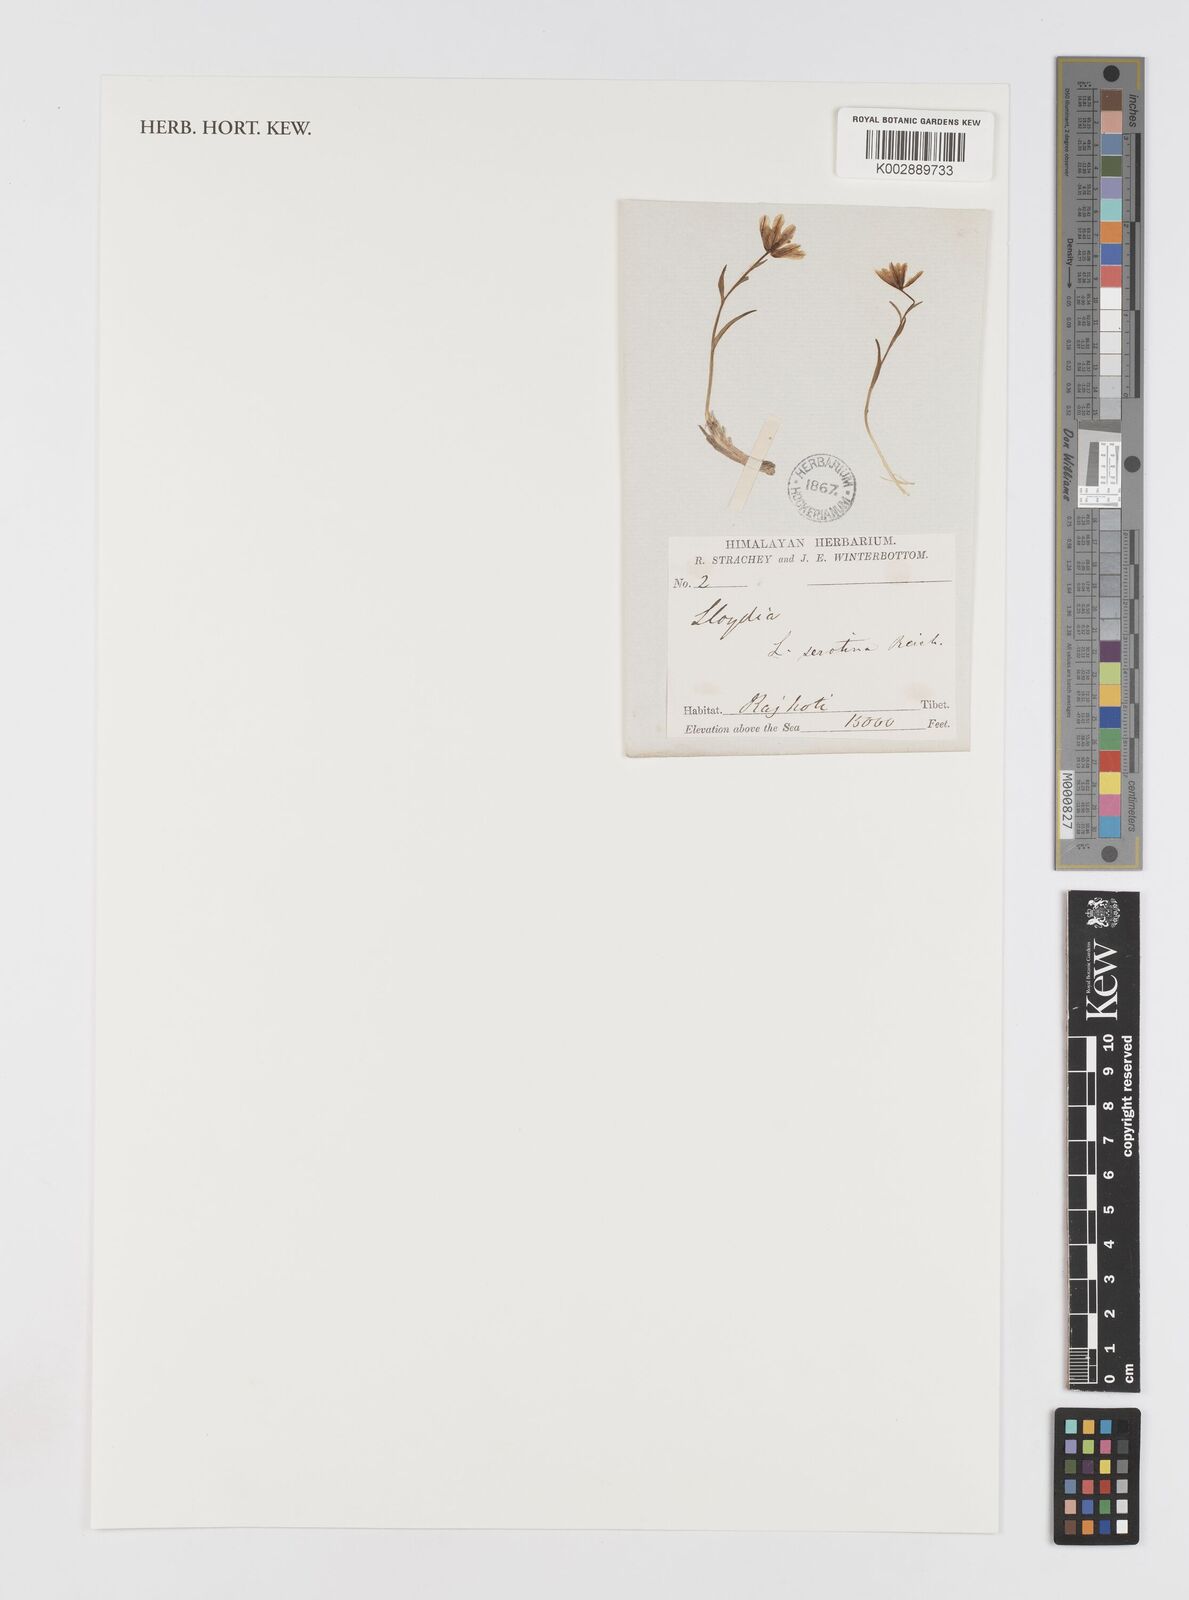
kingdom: Plantae
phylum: Tracheophyta
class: Liliopsida
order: Liliales
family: Liliaceae
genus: Gagea
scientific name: Gagea serotina
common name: Snowdon lily
